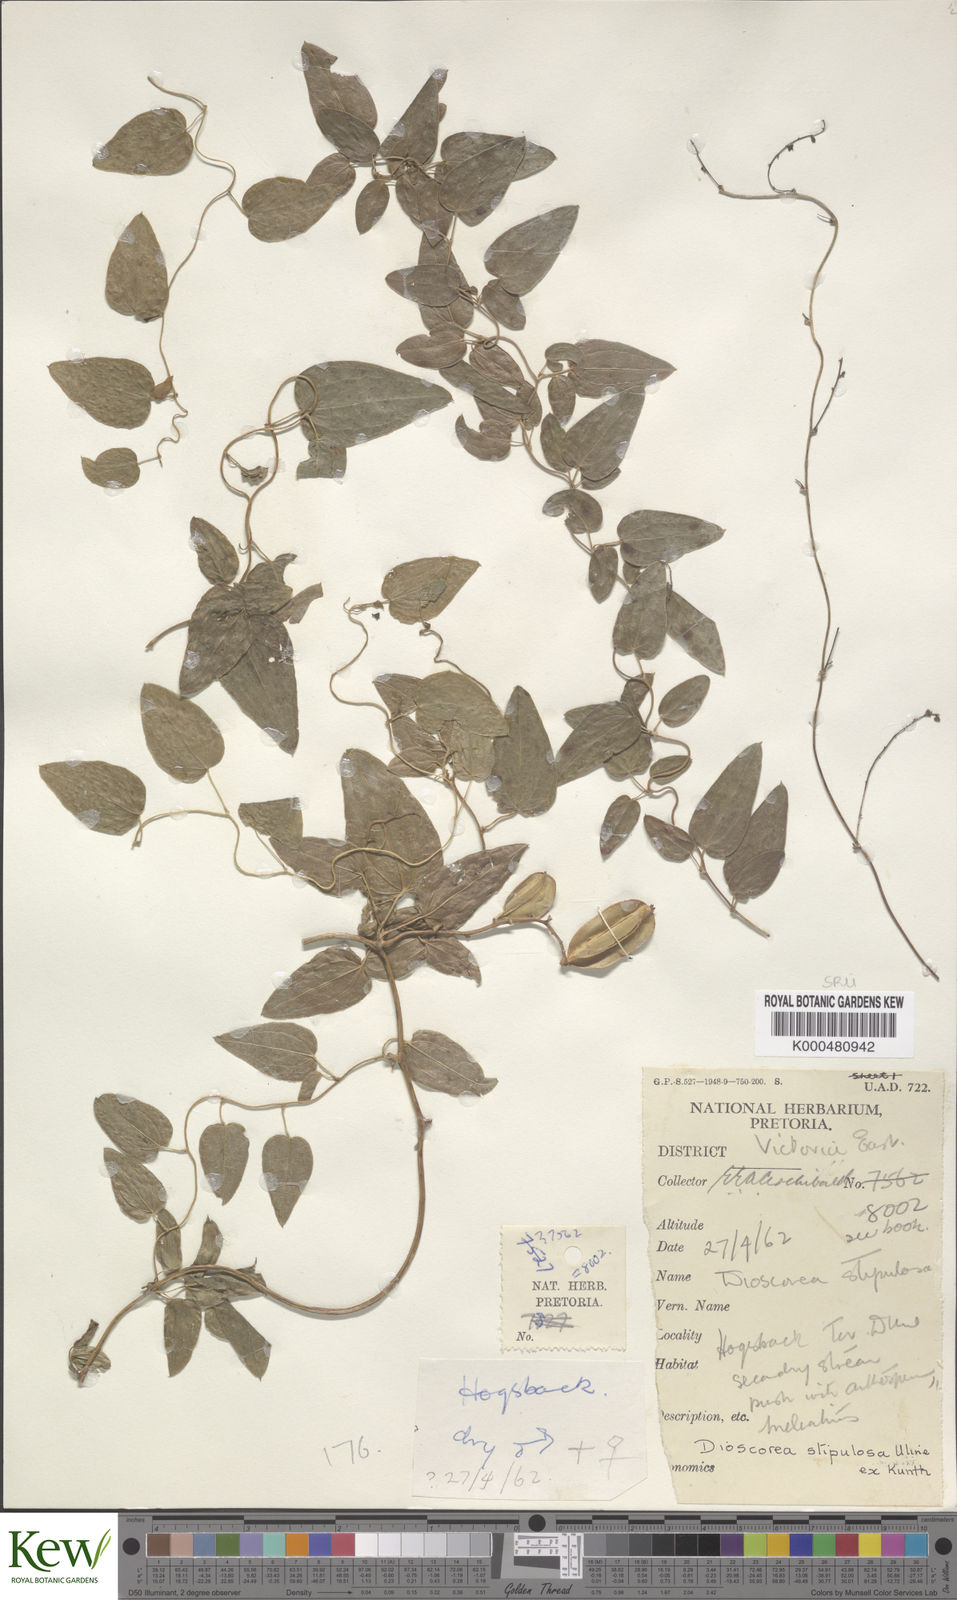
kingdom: Plantae
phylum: Tracheophyta
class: Liliopsida
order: Dioscoreales
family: Dioscoreaceae
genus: Dioscorea
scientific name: Dioscorea stipulosa
